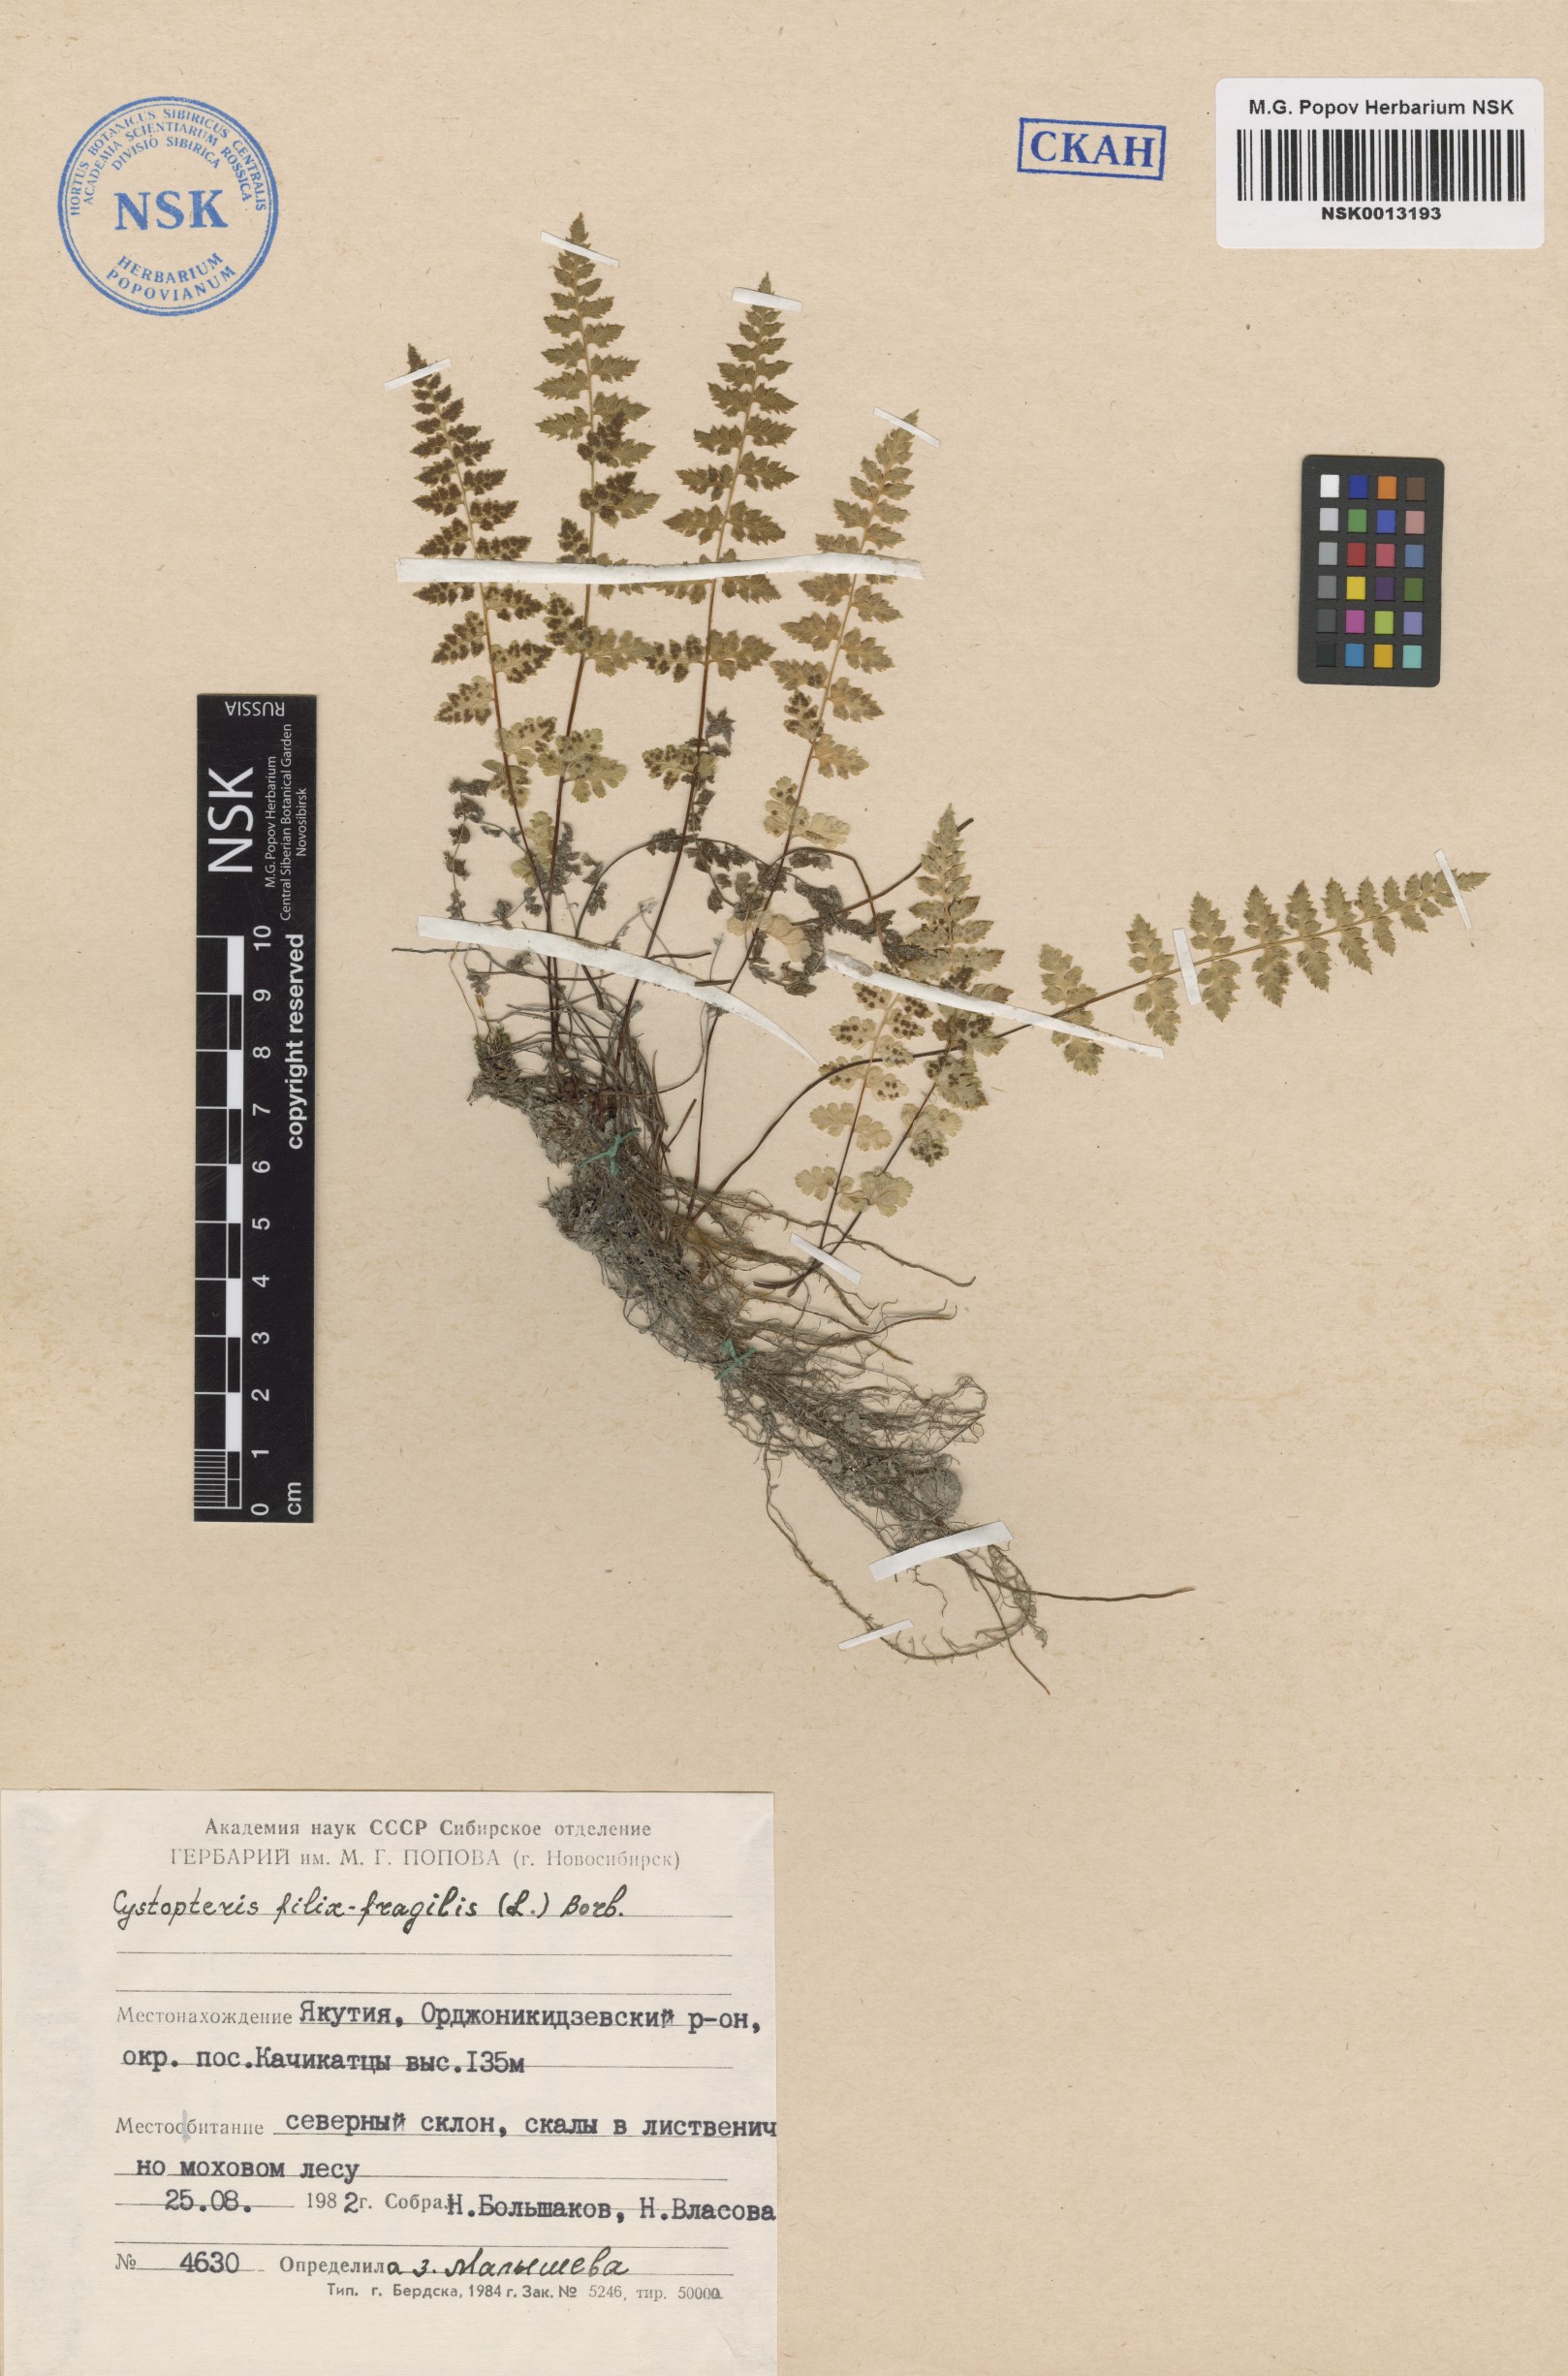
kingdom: Plantae
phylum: Tracheophyta
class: Polypodiopsida
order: Polypodiales
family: Cystopteridaceae
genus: Cystopteris
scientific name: Cystopteris fragilis
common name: Brittle bladder fern
